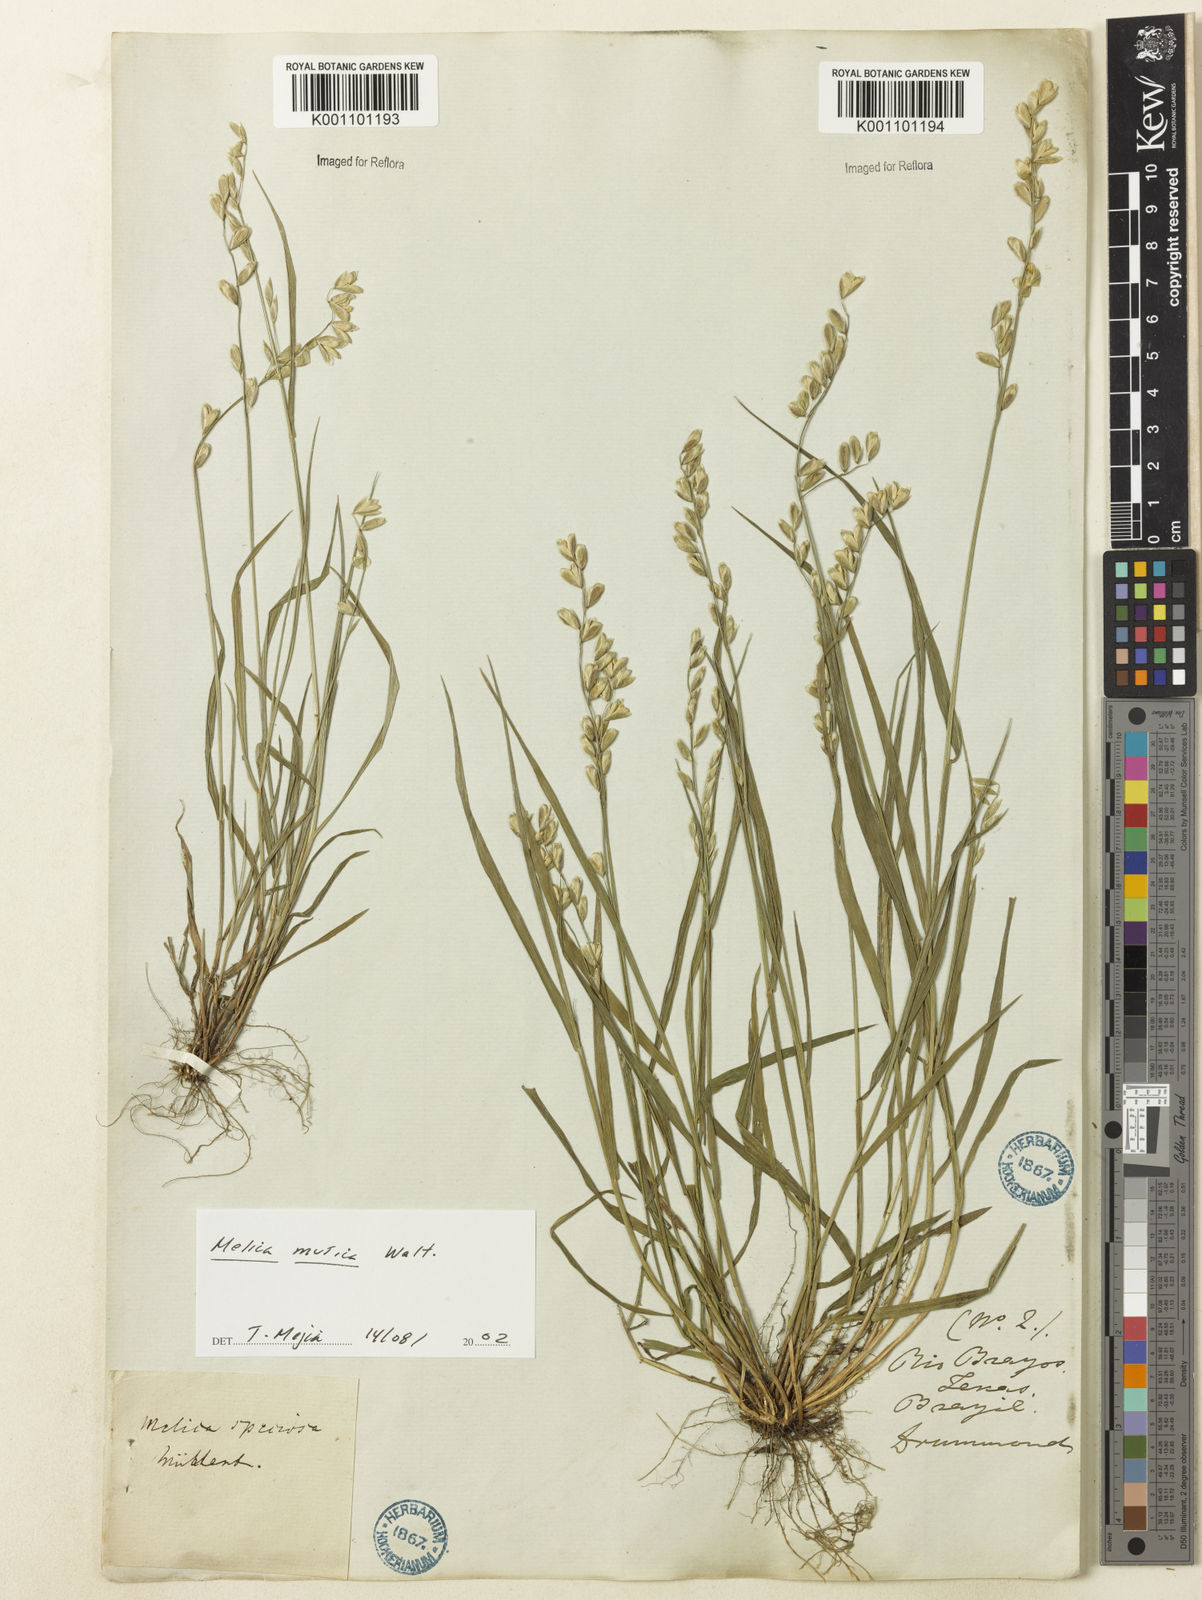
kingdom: Plantae
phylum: Tracheophyta
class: Liliopsida
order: Poales
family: Poaceae
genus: Melica
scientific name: Melica mutica
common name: Two-flower melic
